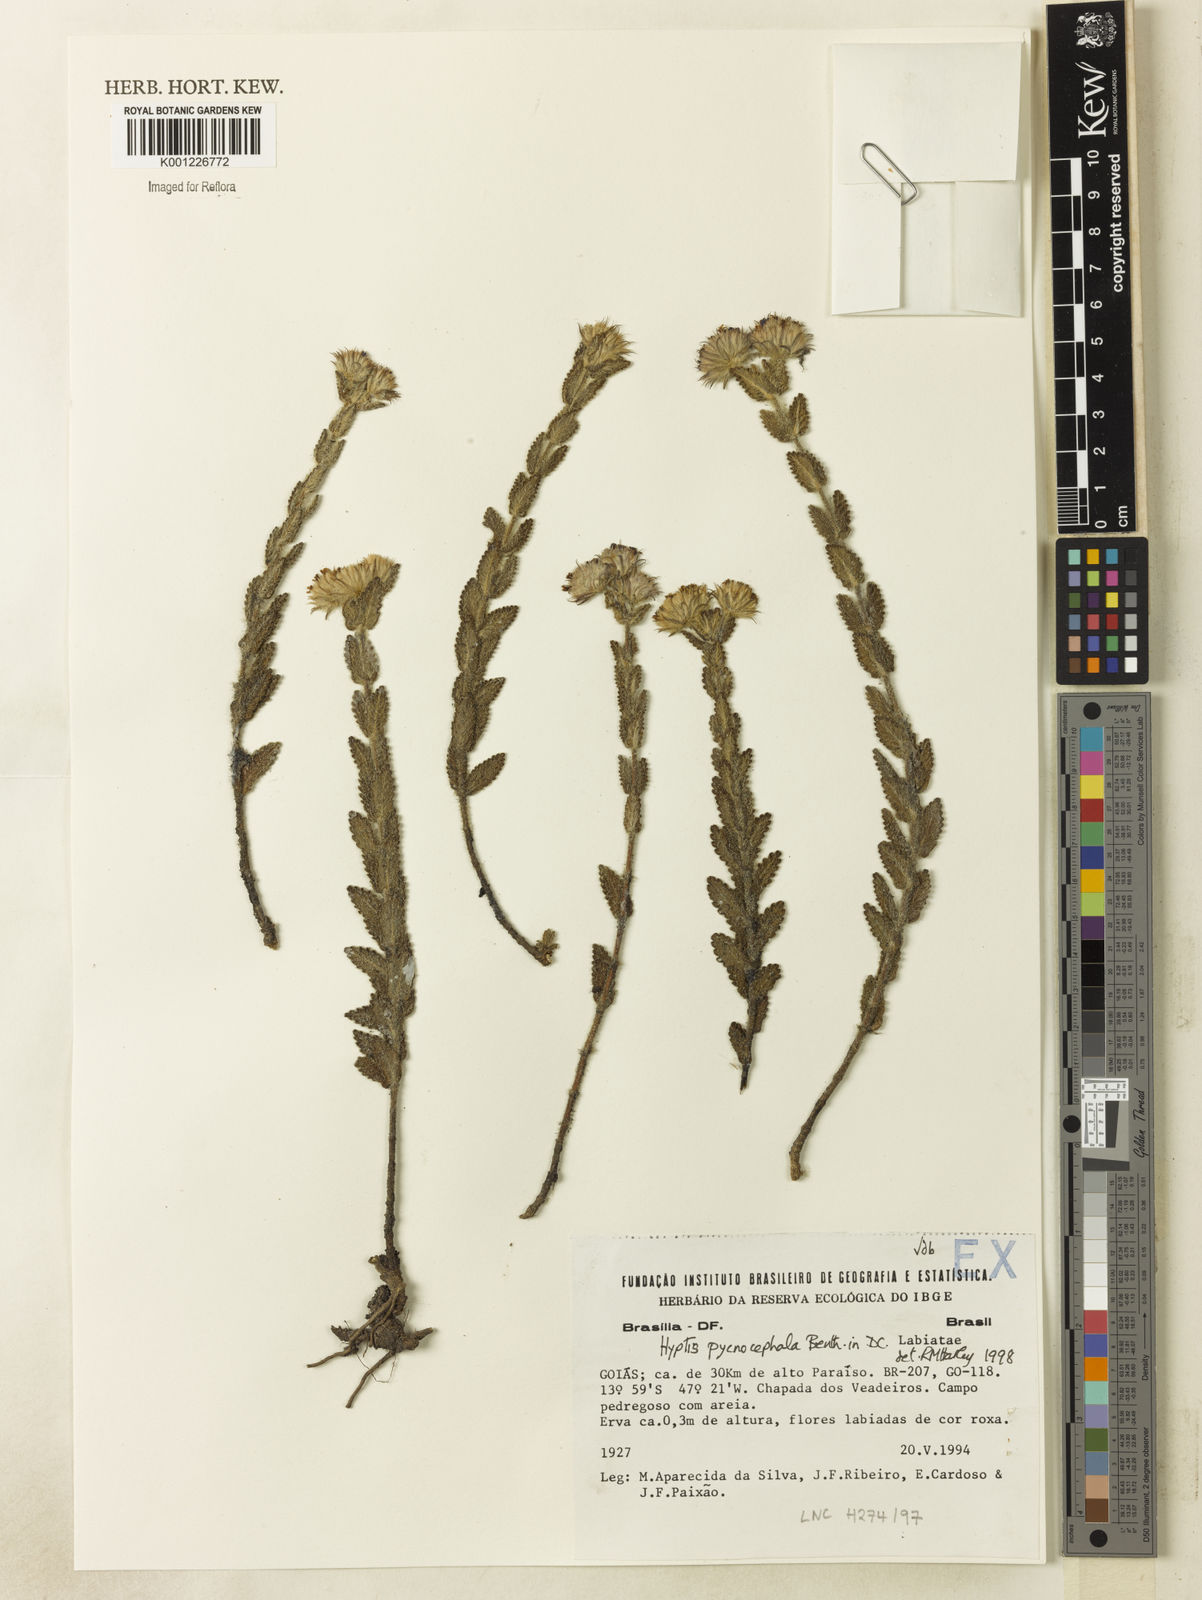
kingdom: Plantae
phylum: Tracheophyta
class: Magnoliopsida
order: Lamiales
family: Lamiaceae
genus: Hyptis
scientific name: Hyptis pycnocephala
